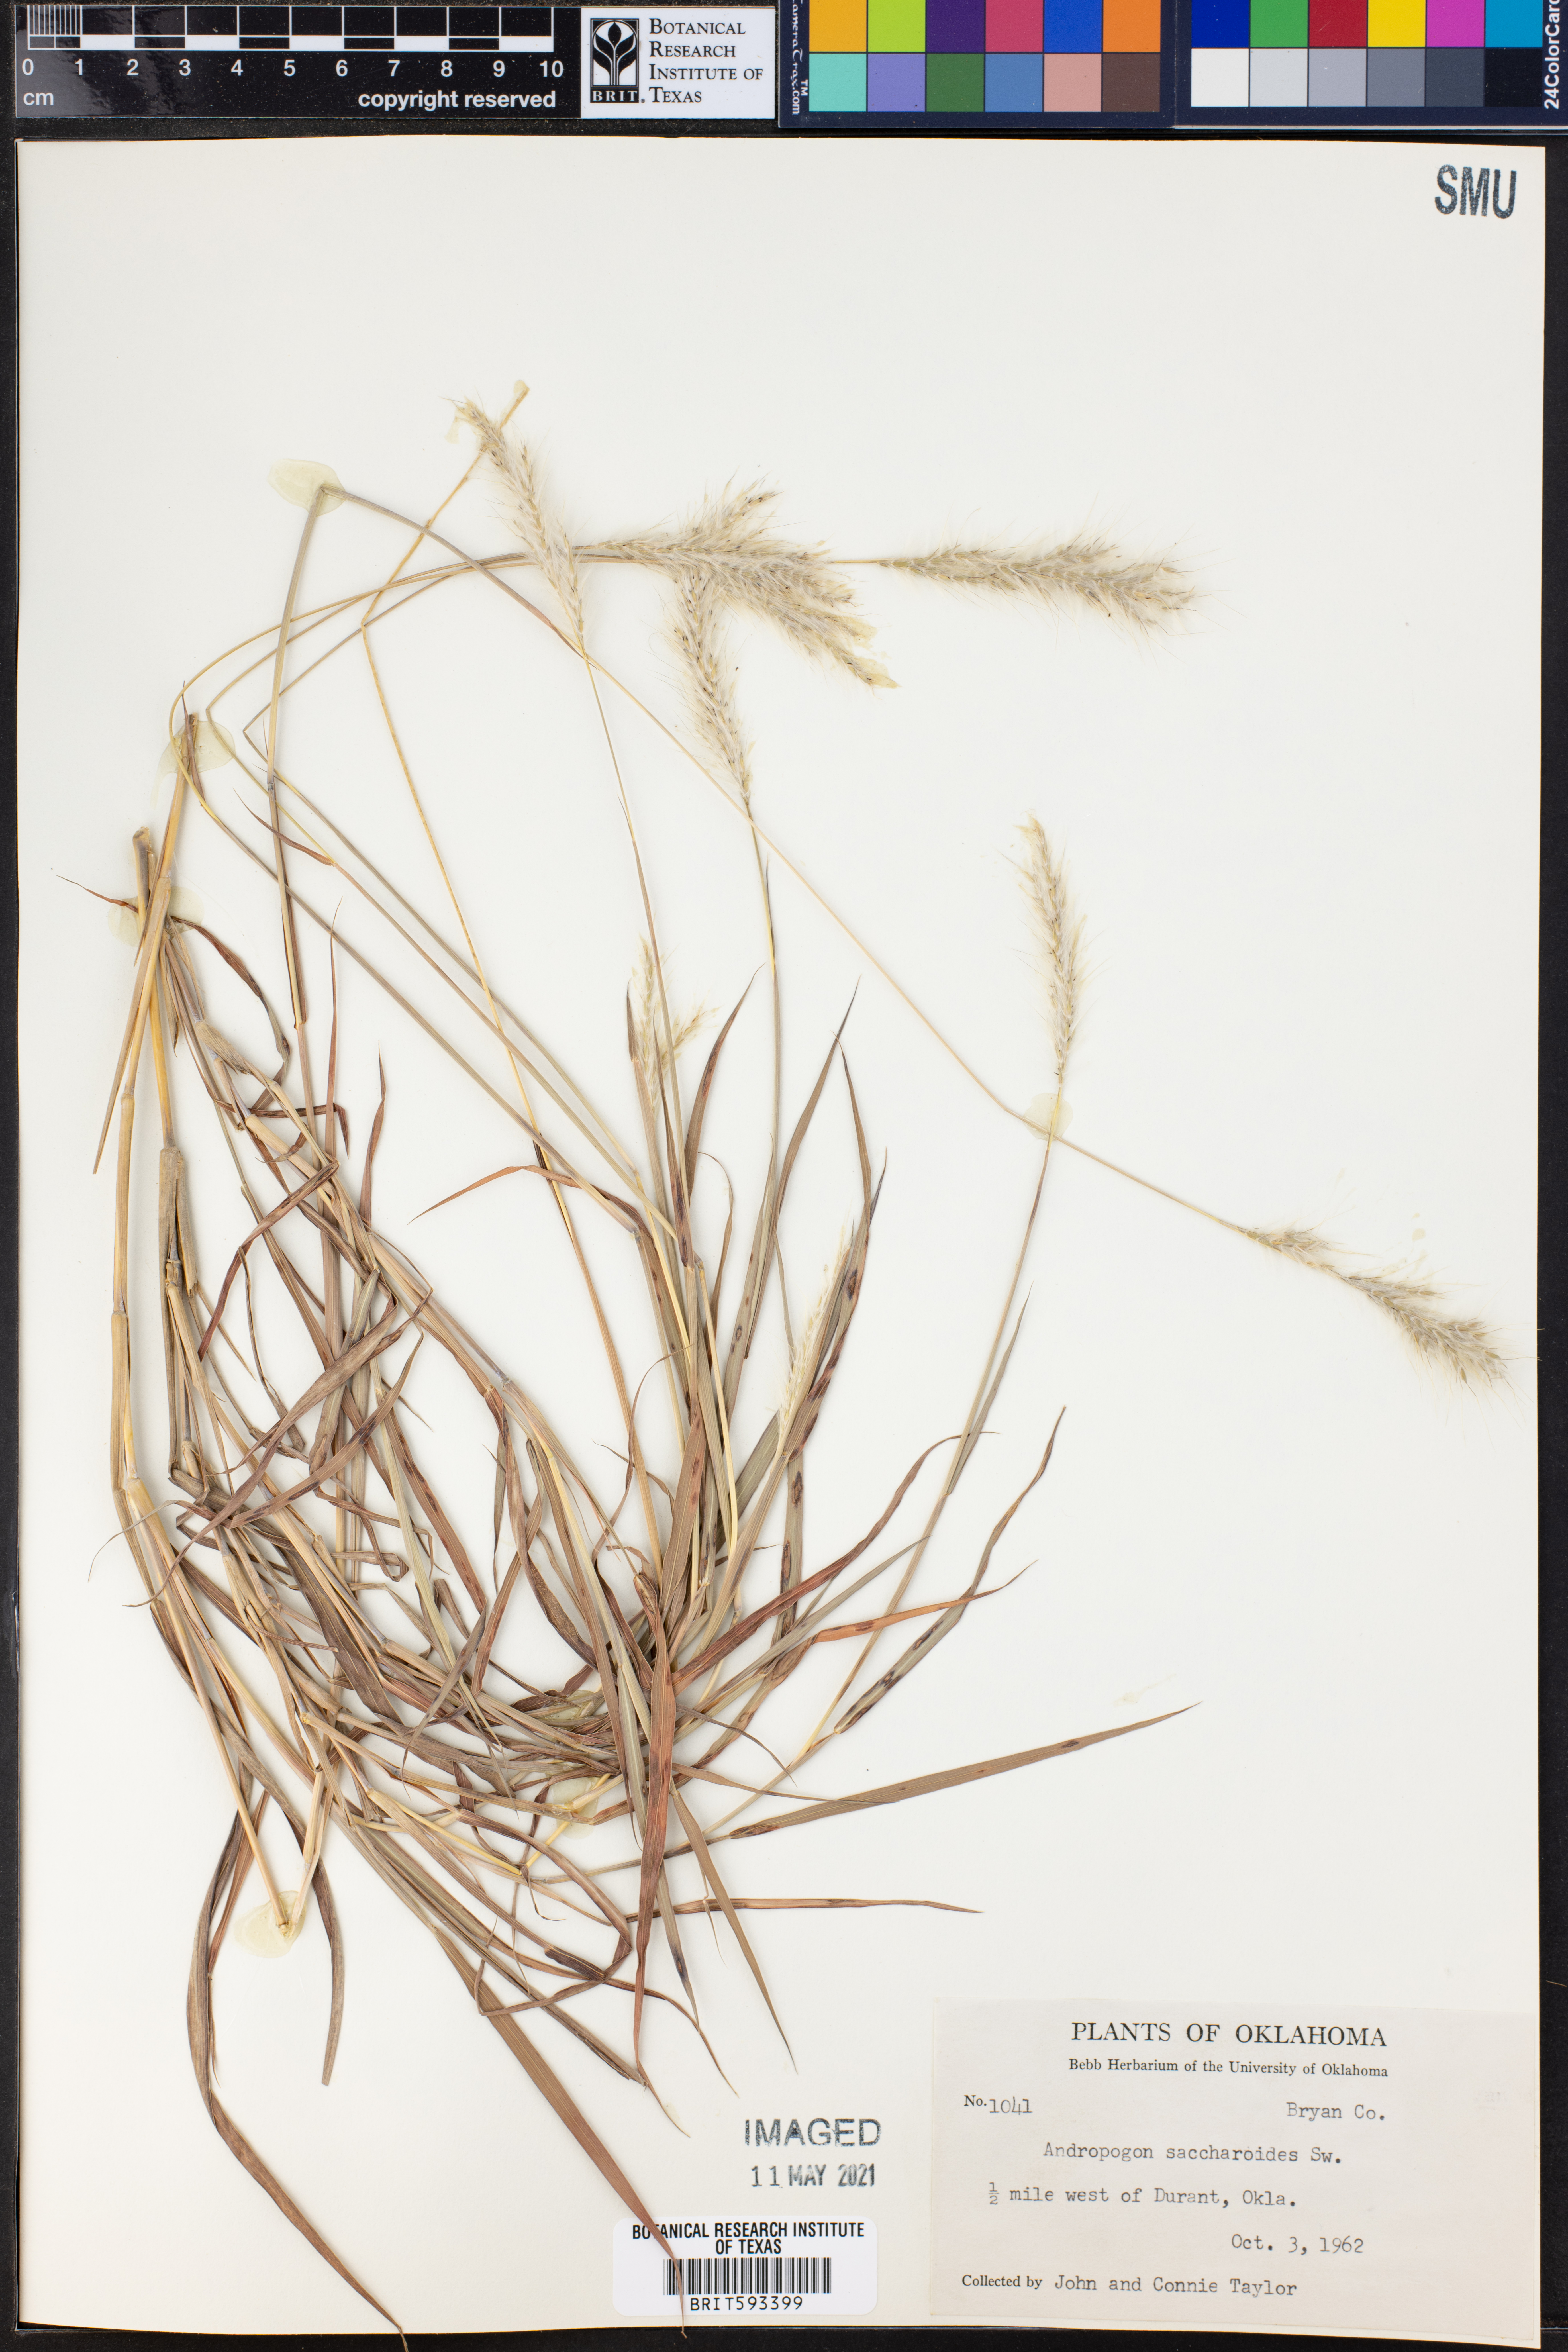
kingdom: Plantae
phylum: Tracheophyta
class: Liliopsida
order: Poales
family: Poaceae
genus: Bothriochloa
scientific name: Bothriochloa saccharoides
